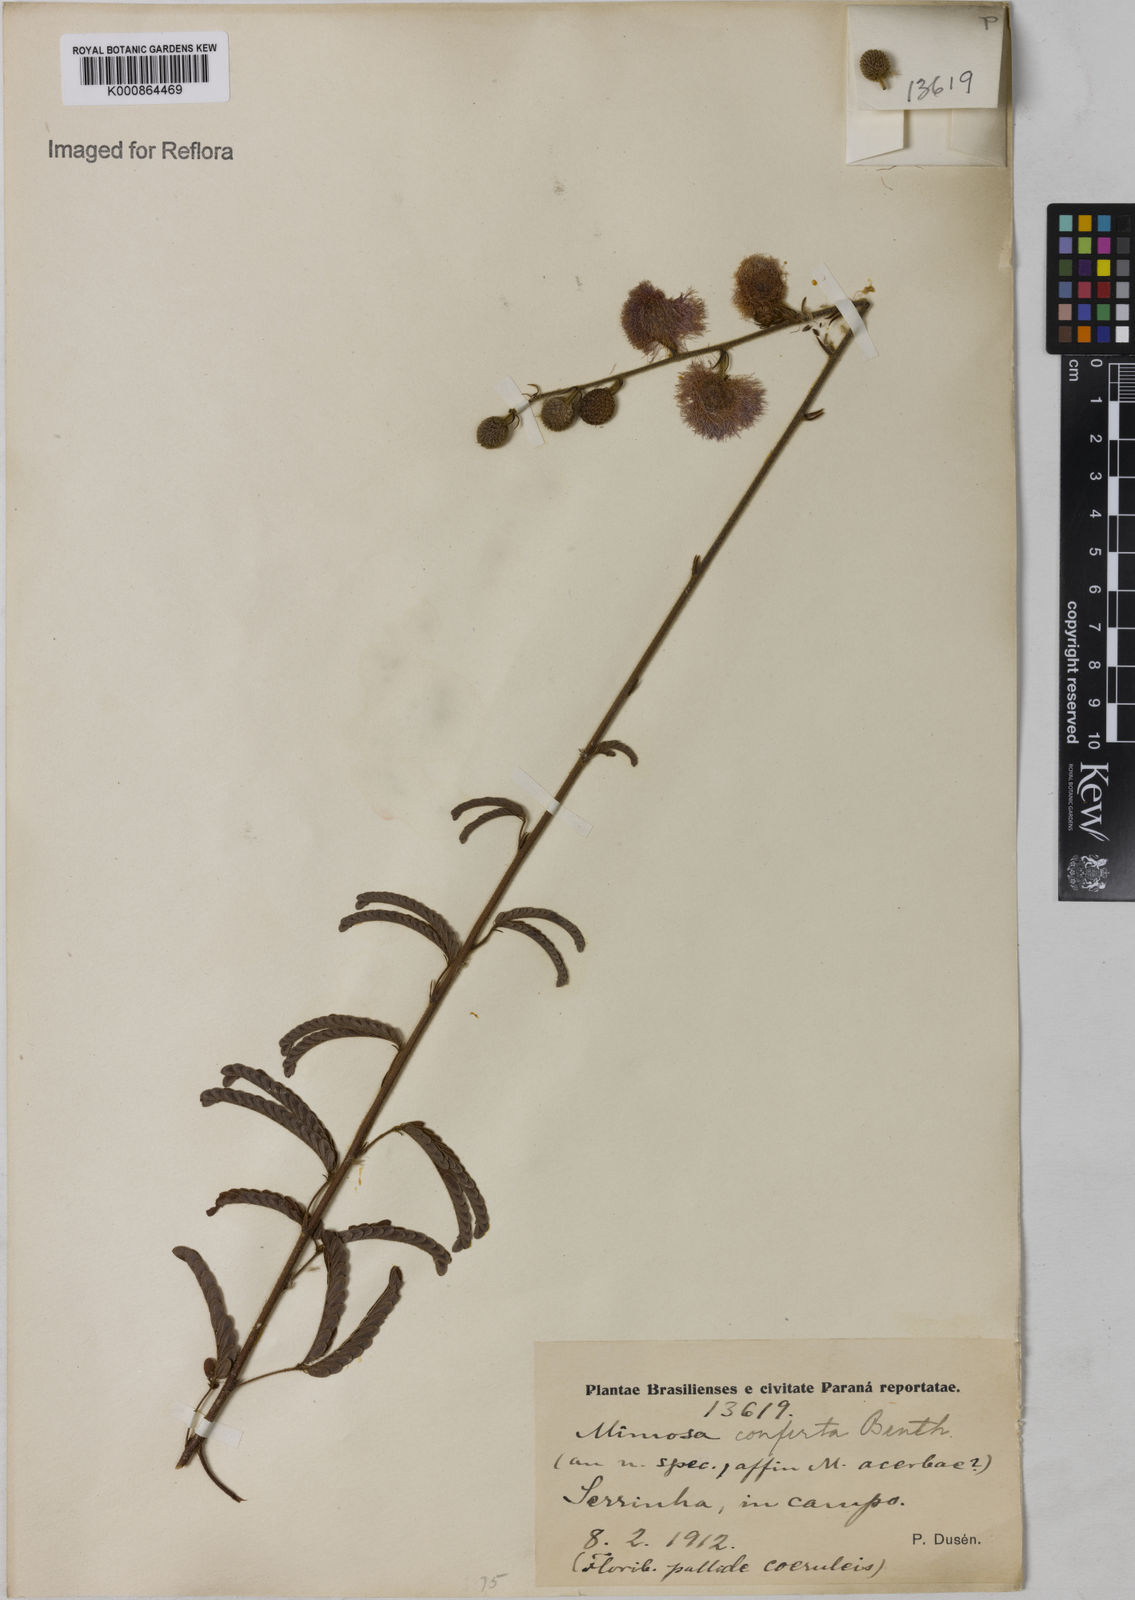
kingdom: Plantae
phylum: Tracheophyta
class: Magnoliopsida
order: Fabales
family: Fabaceae
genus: Mimosa
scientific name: Mimosa dolens
